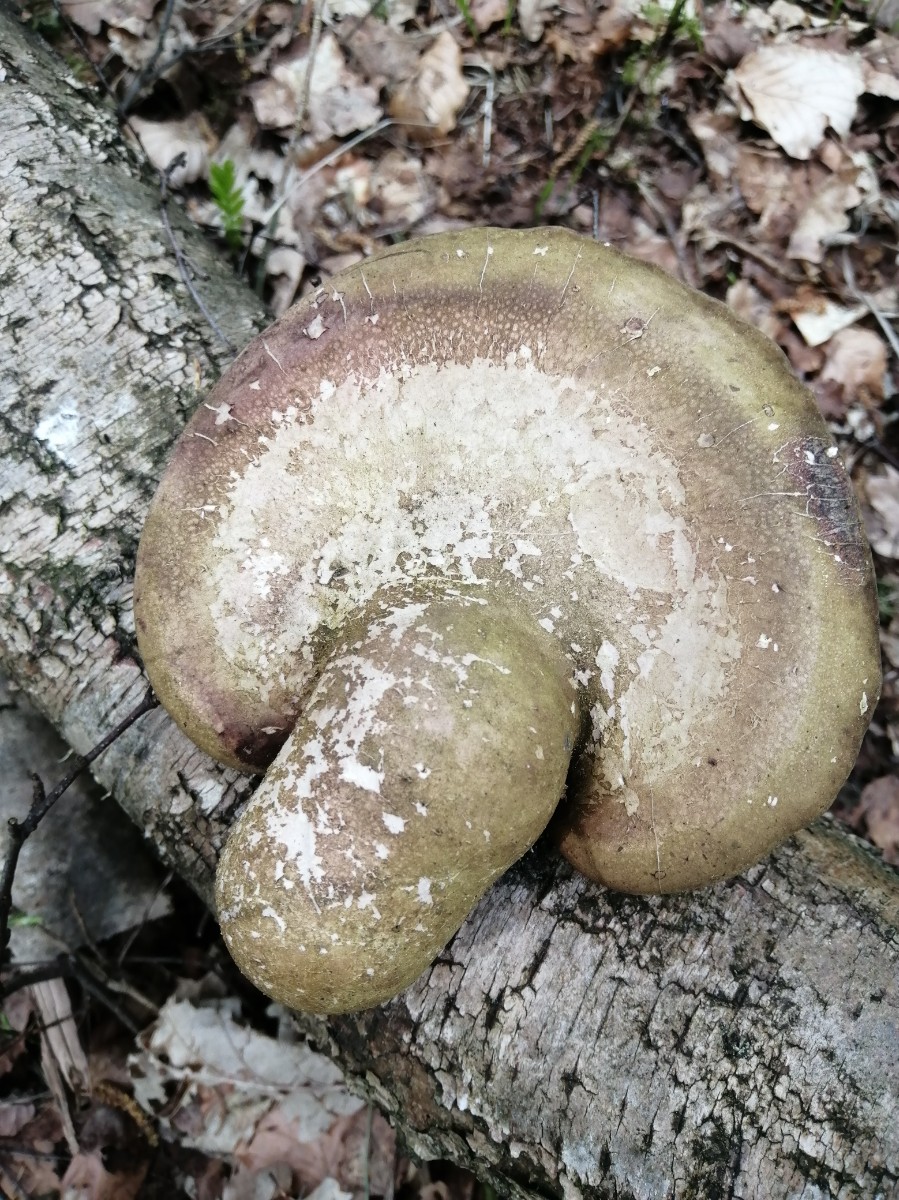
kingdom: Fungi
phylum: Basidiomycota
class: Agaricomycetes
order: Polyporales
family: Fomitopsidaceae
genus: Fomitopsis
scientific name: Fomitopsis betulina
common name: birkeporesvamp
